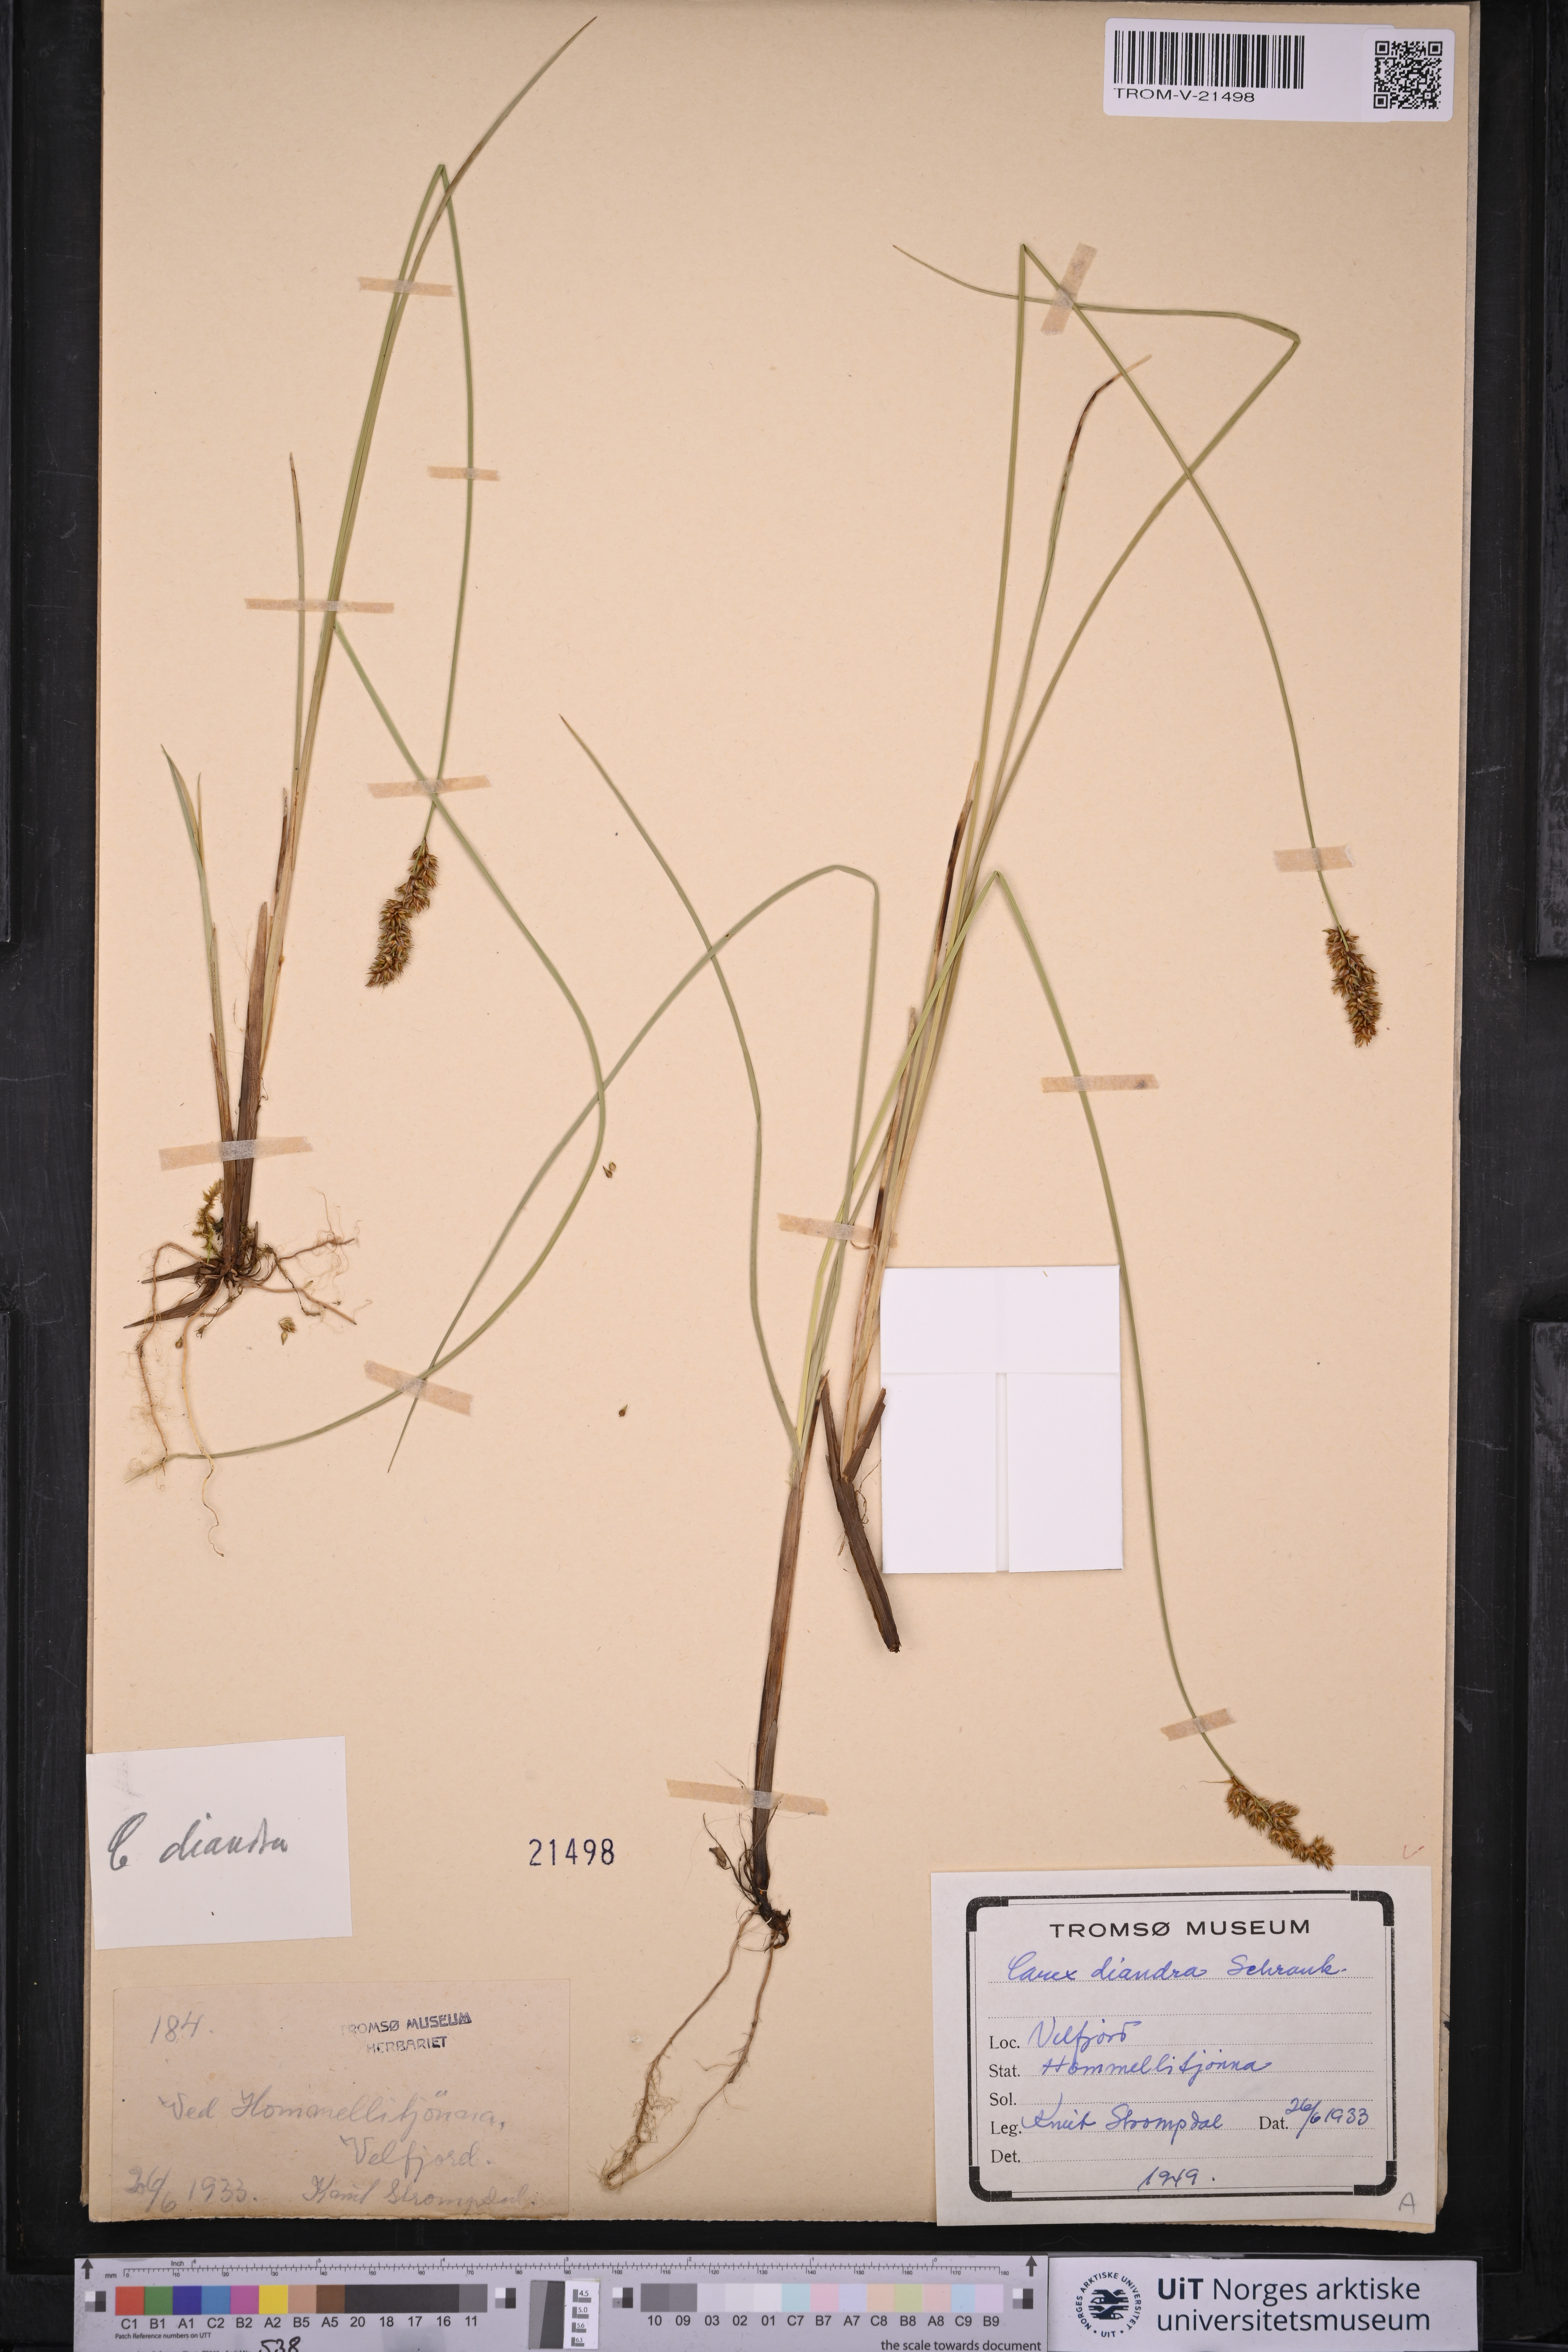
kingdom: Plantae
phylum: Tracheophyta
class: Liliopsida
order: Poales
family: Cyperaceae
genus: Carex
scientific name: Carex diandra
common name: Lesser tussock-sedge
